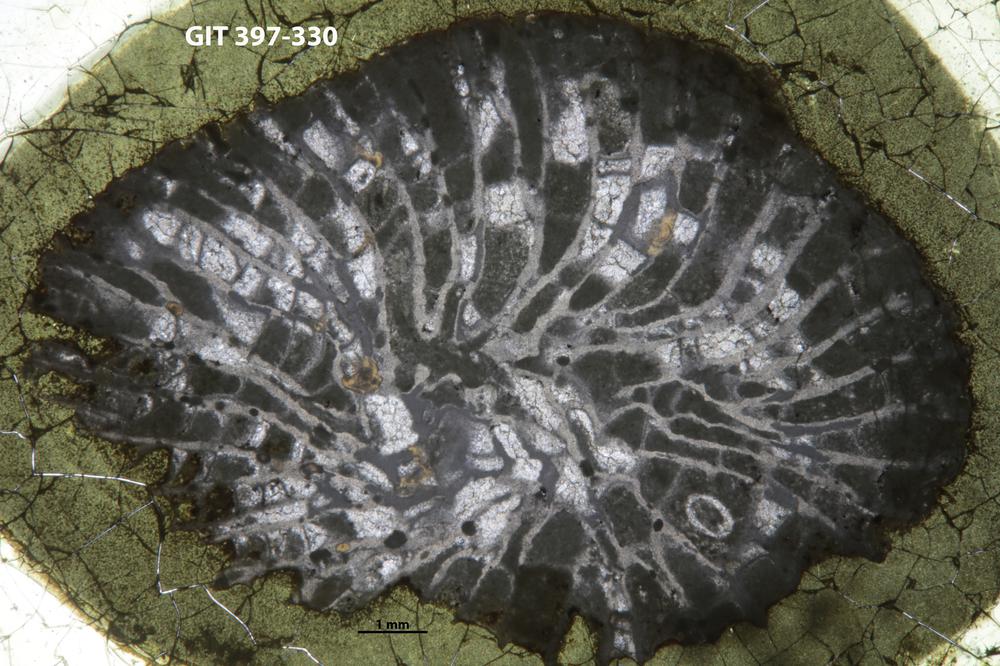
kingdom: Animalia
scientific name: Animalia
